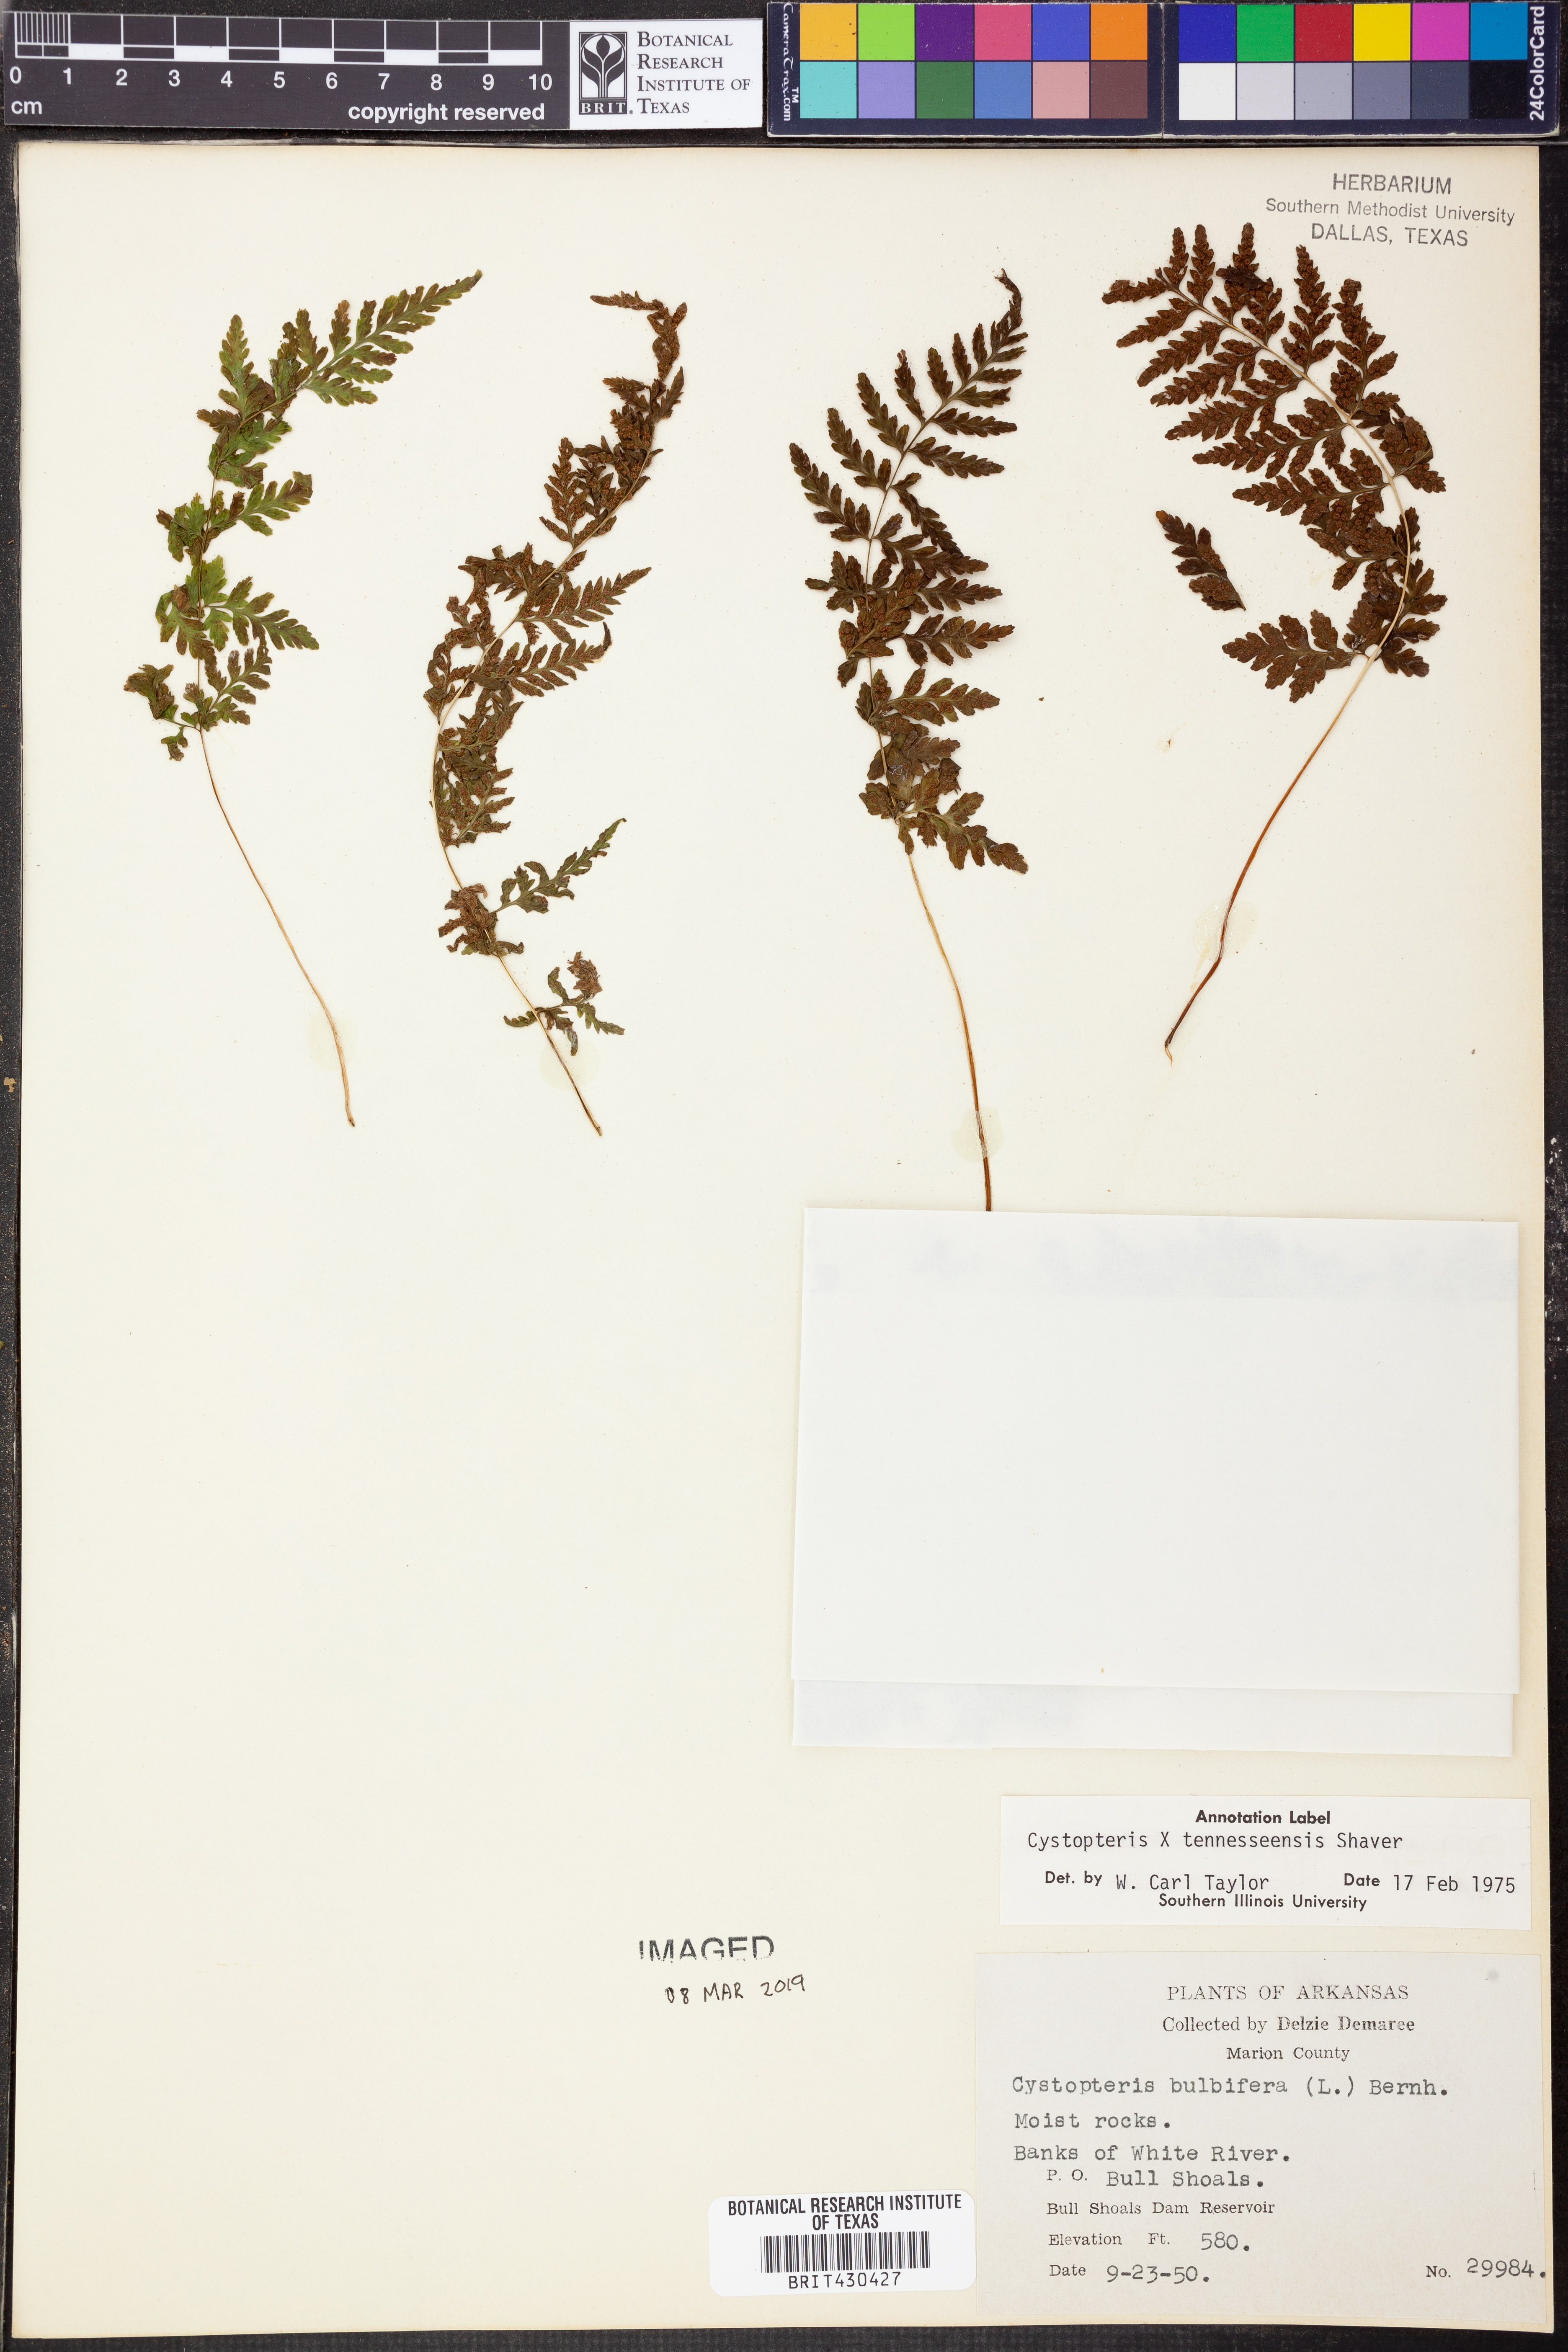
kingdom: Plantae
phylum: Tracheophyta
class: Polypodiopsida
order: Polypodiales
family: Cystopteridaceae
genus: Cystopteris
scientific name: Cystopteris tennesseensis
